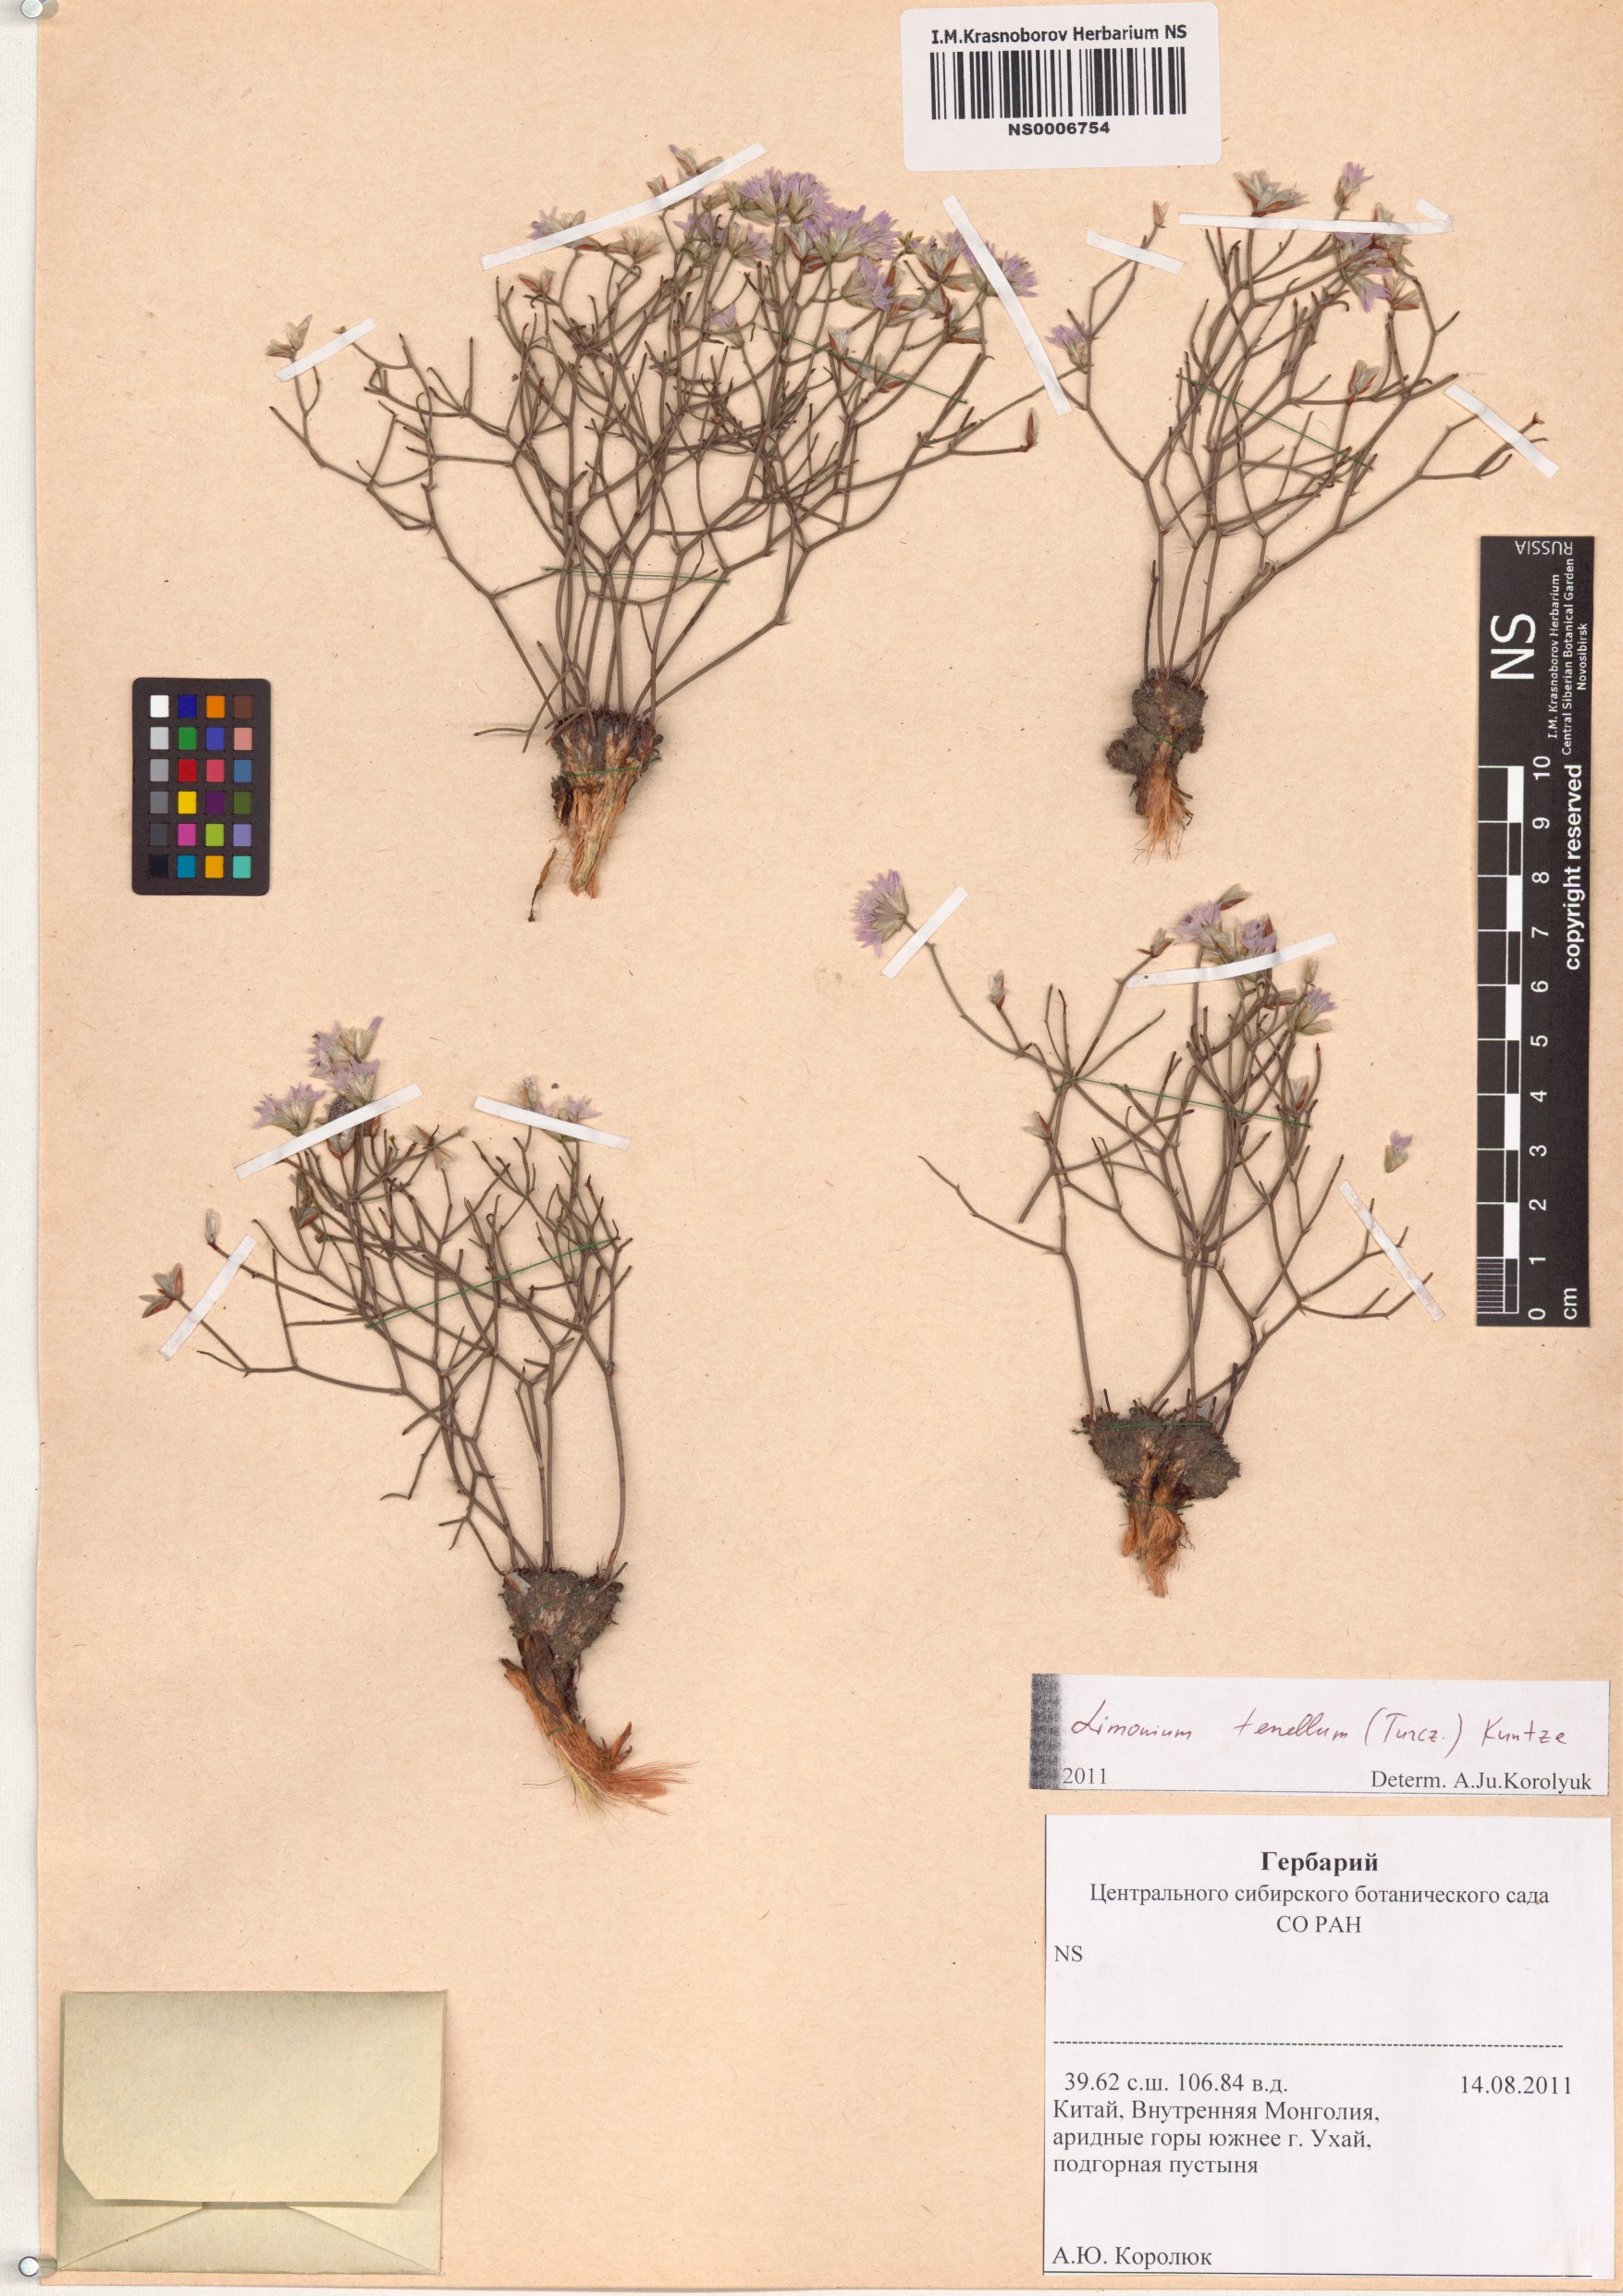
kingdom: Plantae
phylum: Tracheophyta
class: Magnoliopsida
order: Caryophyllales
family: Plumbaginaceae
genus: Limonium
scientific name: Limonium tenellum
